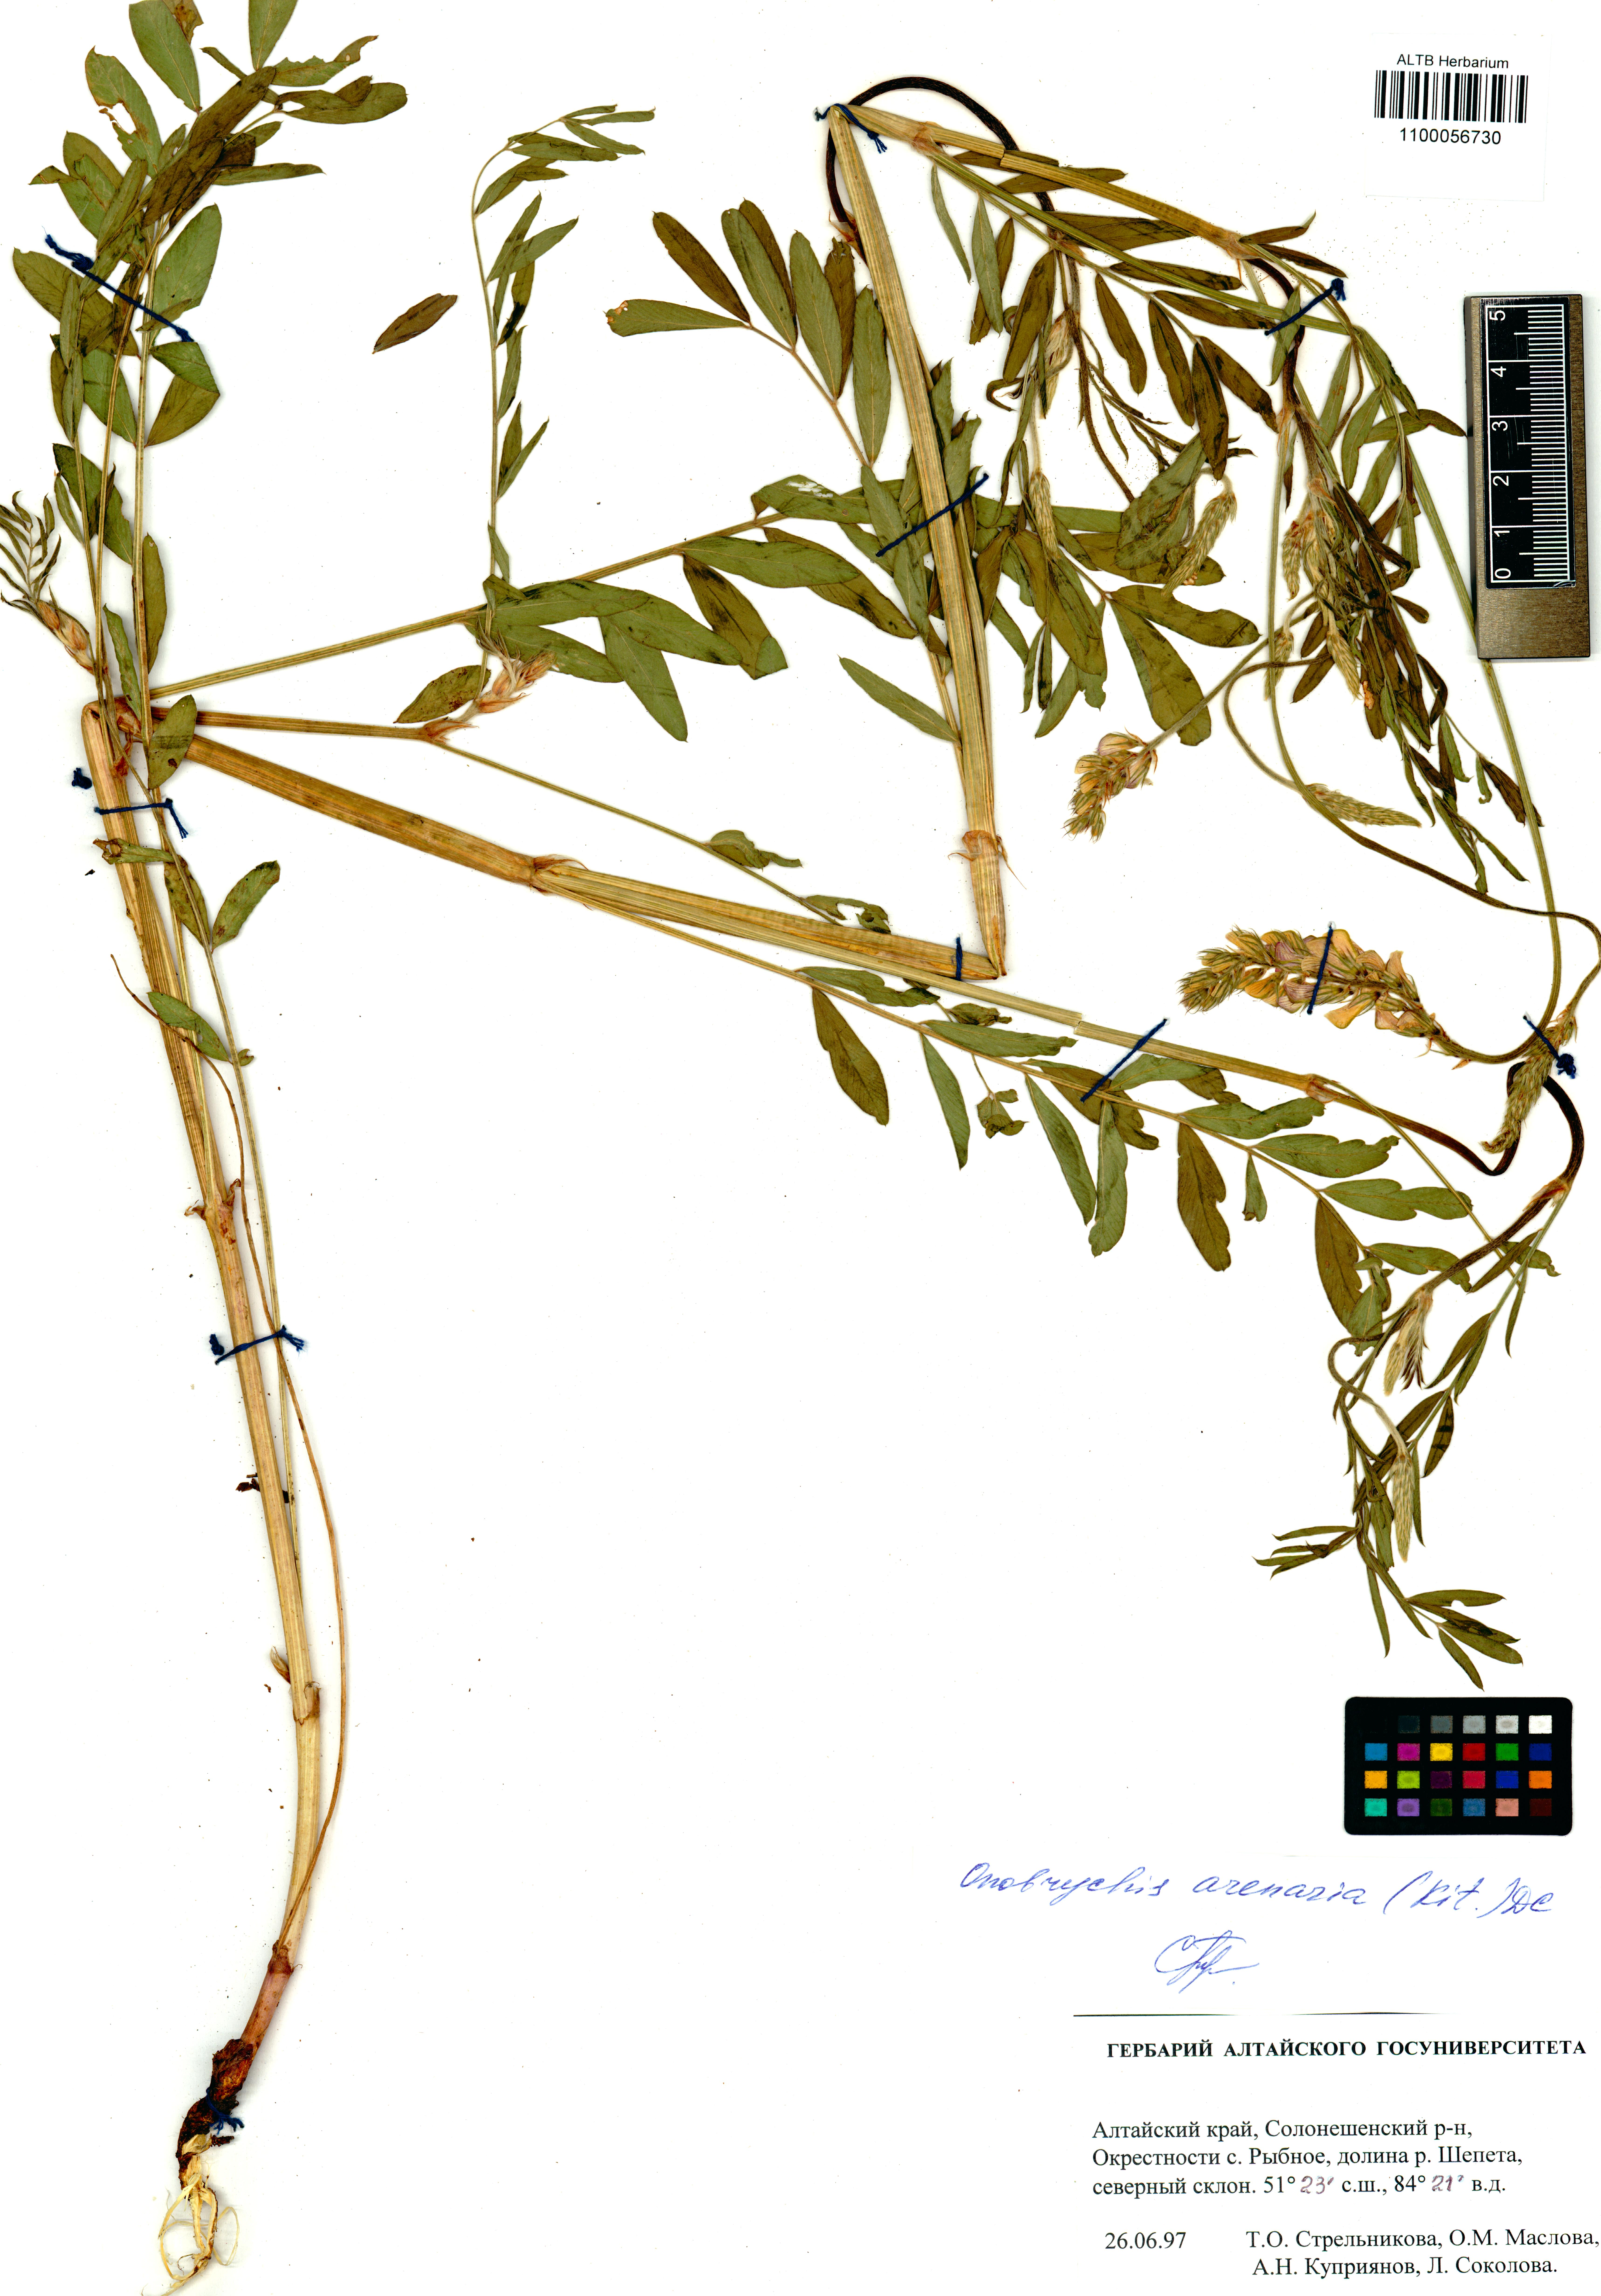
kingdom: Plantae
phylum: Tracheophyta
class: Magnoliopsida
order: Fabales
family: Fabaceae
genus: Onobrychis
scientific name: Onobrychis arenaria
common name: Sand esparcet
